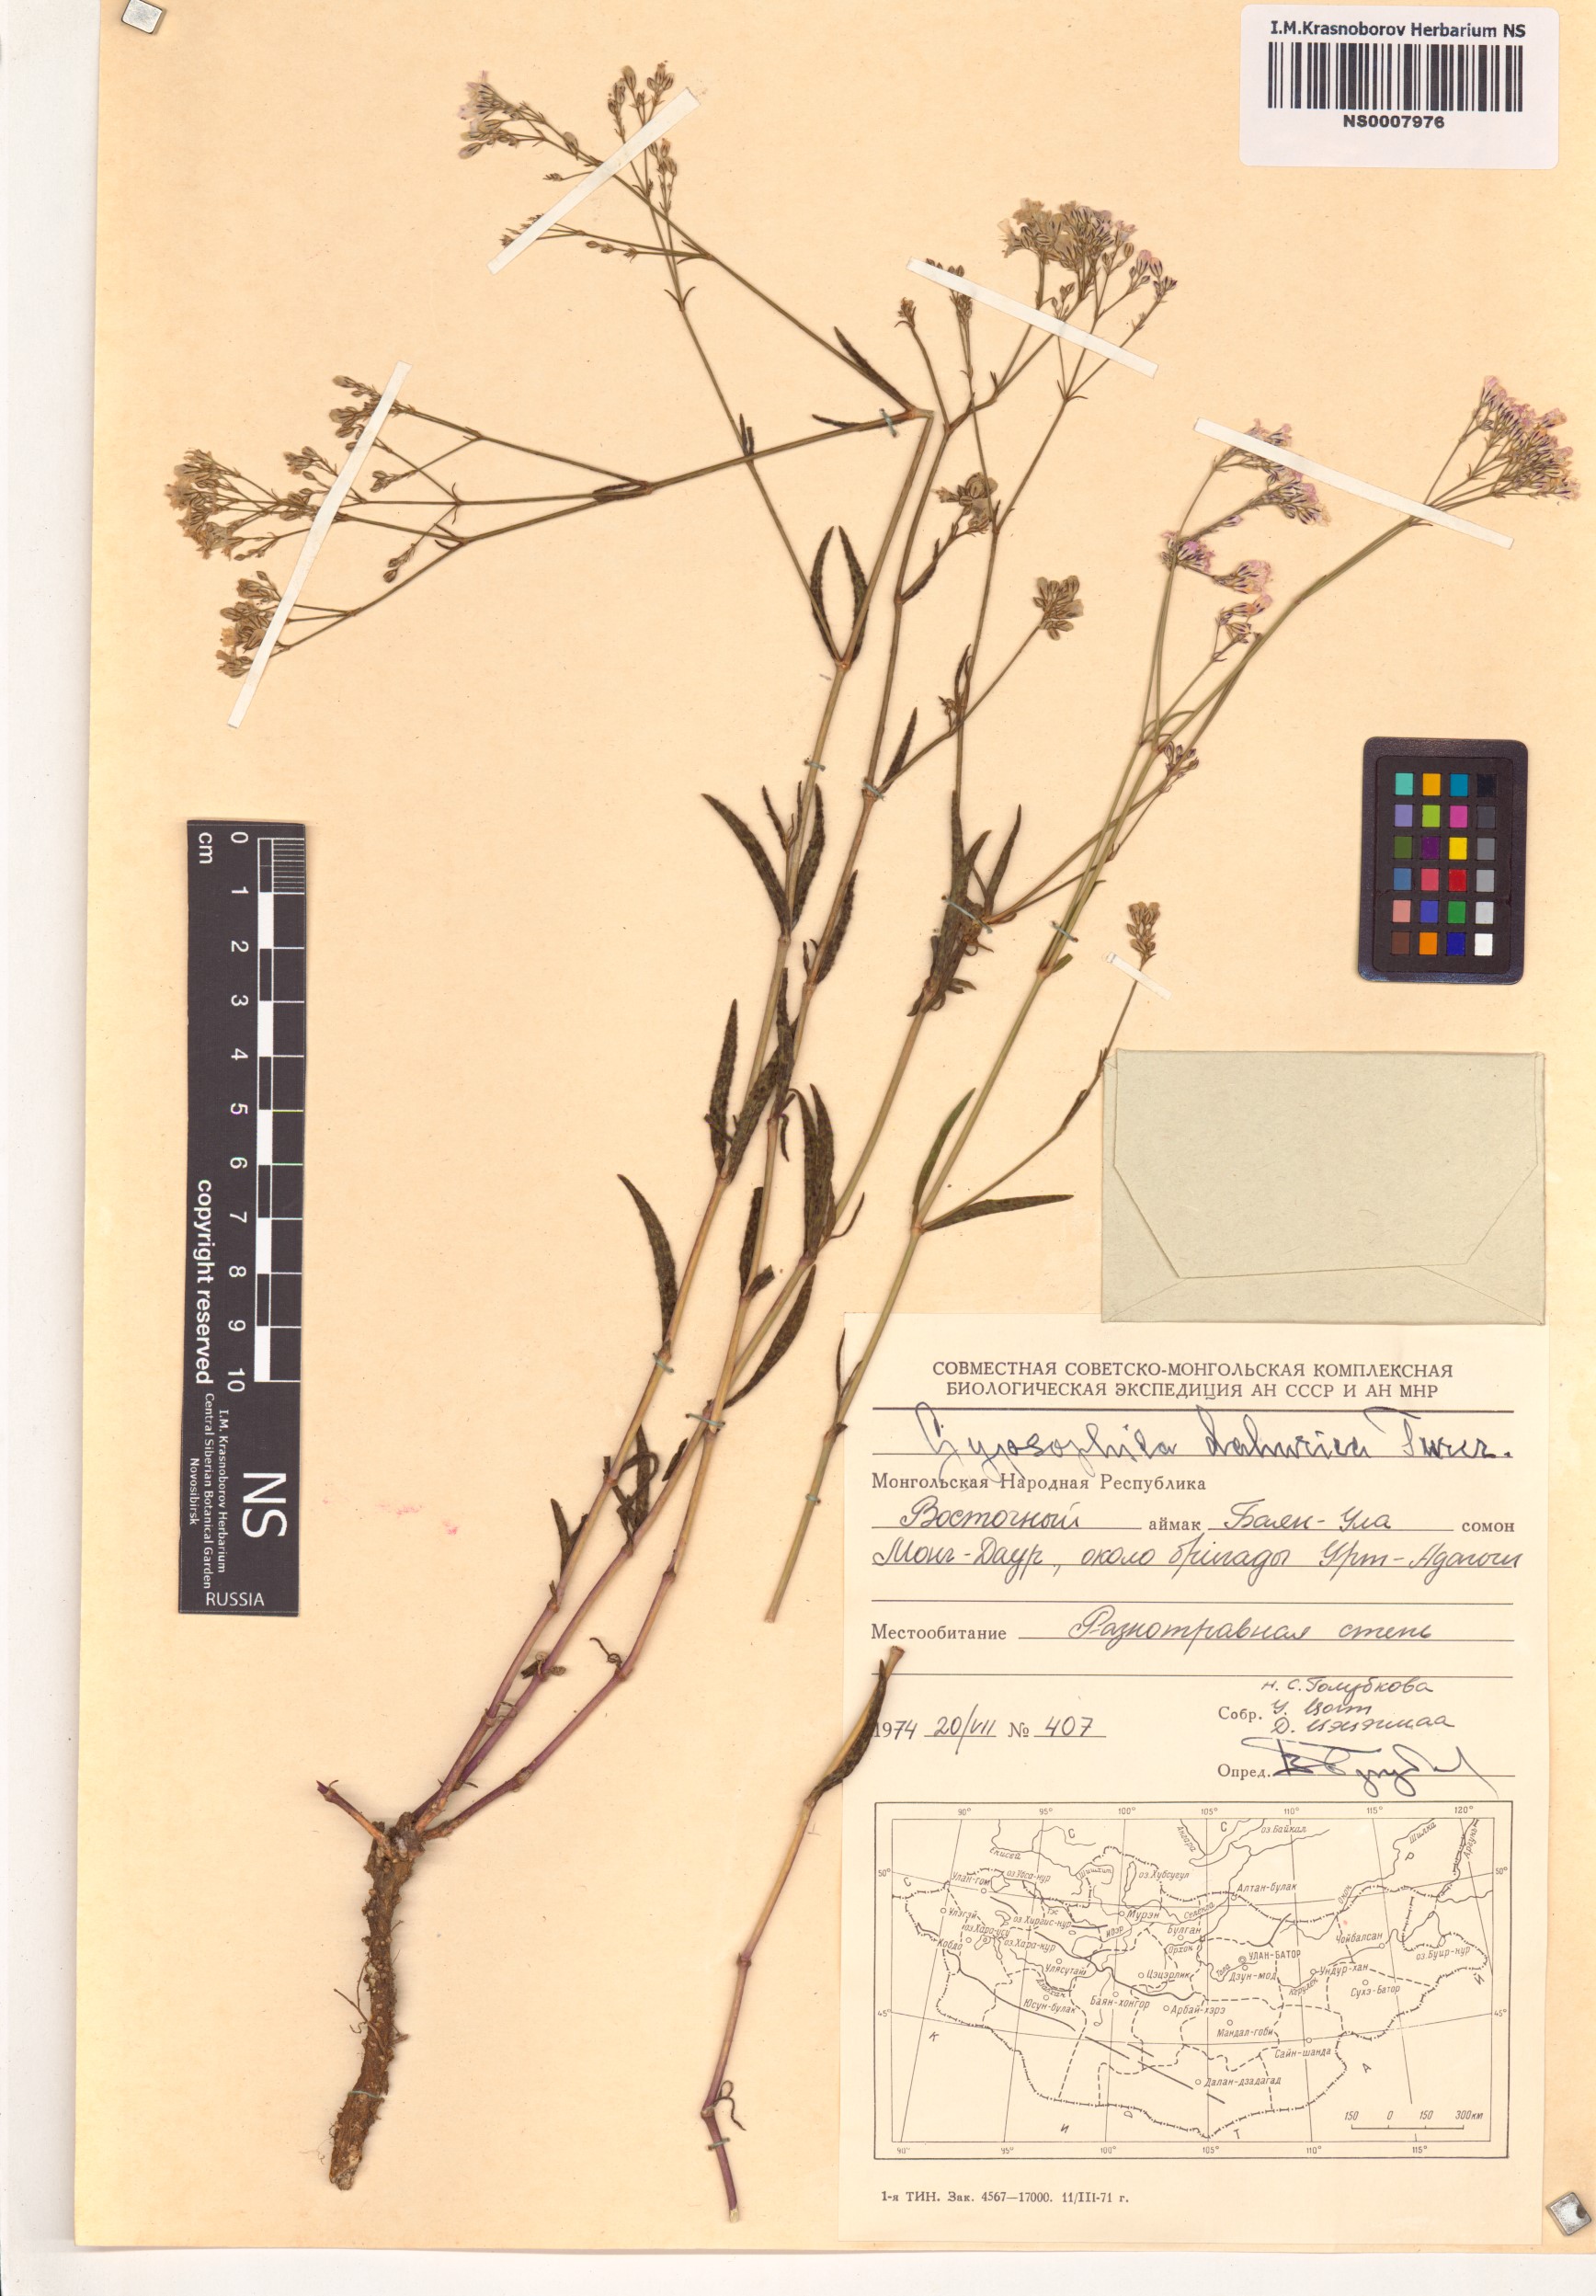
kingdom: Plantae
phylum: Tracheophyta
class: Magnoliopsida
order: Caryophyllales
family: Caryophyllaceae
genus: Gypsophila
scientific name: Gypsophila davurica
